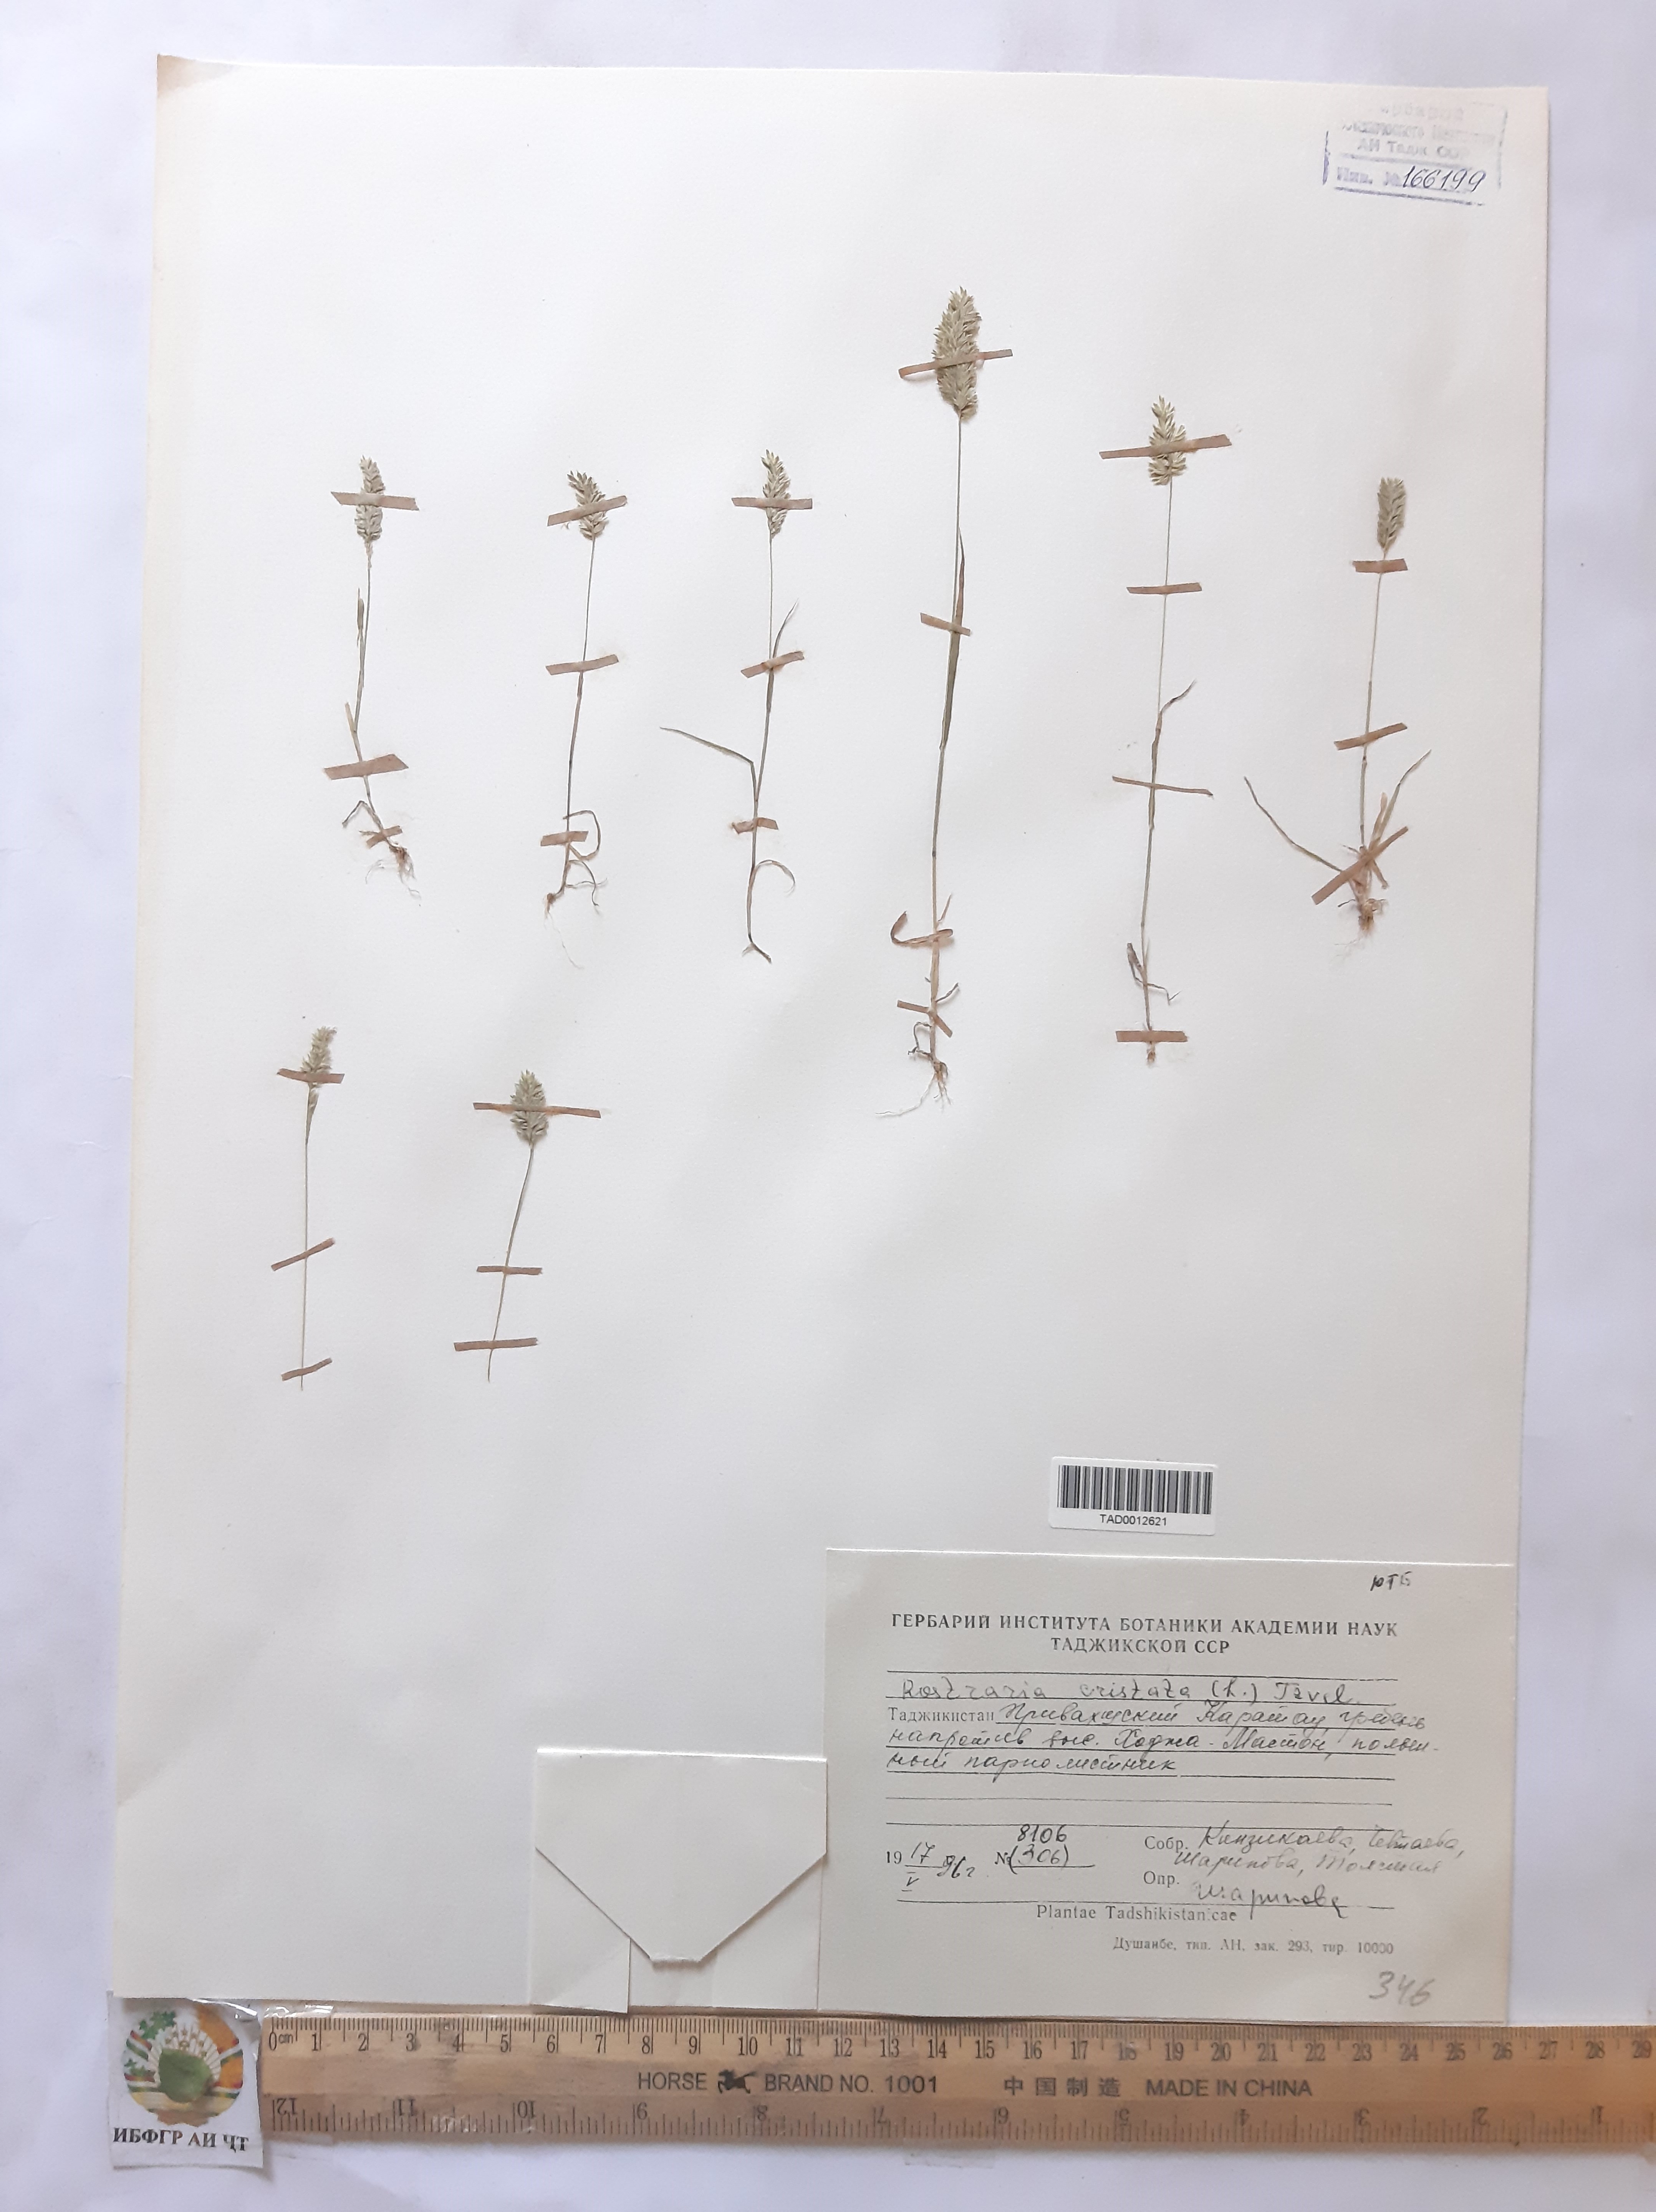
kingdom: Plantae
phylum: Tracheophyta
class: Liliopsida
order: Poales
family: Poaceae
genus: Rostraria
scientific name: Rostraria cristata
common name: Mediterranean hair-grass
